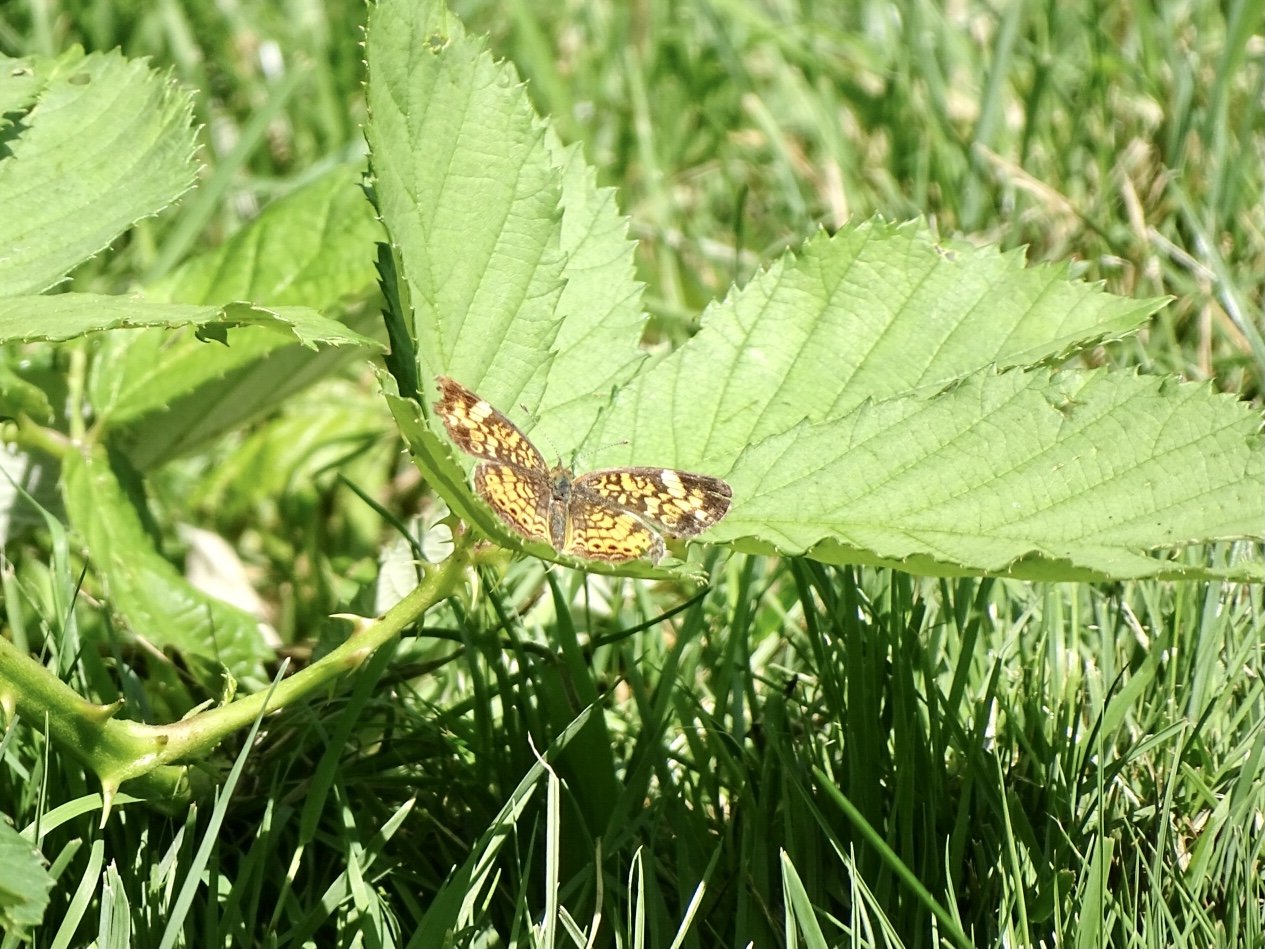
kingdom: Animalia
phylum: Arthropoda
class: Insecta
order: Lepidoptera
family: Nymphalidae
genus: Phyciodes
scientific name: Phyciodes tharos
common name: Pearl Crescent
